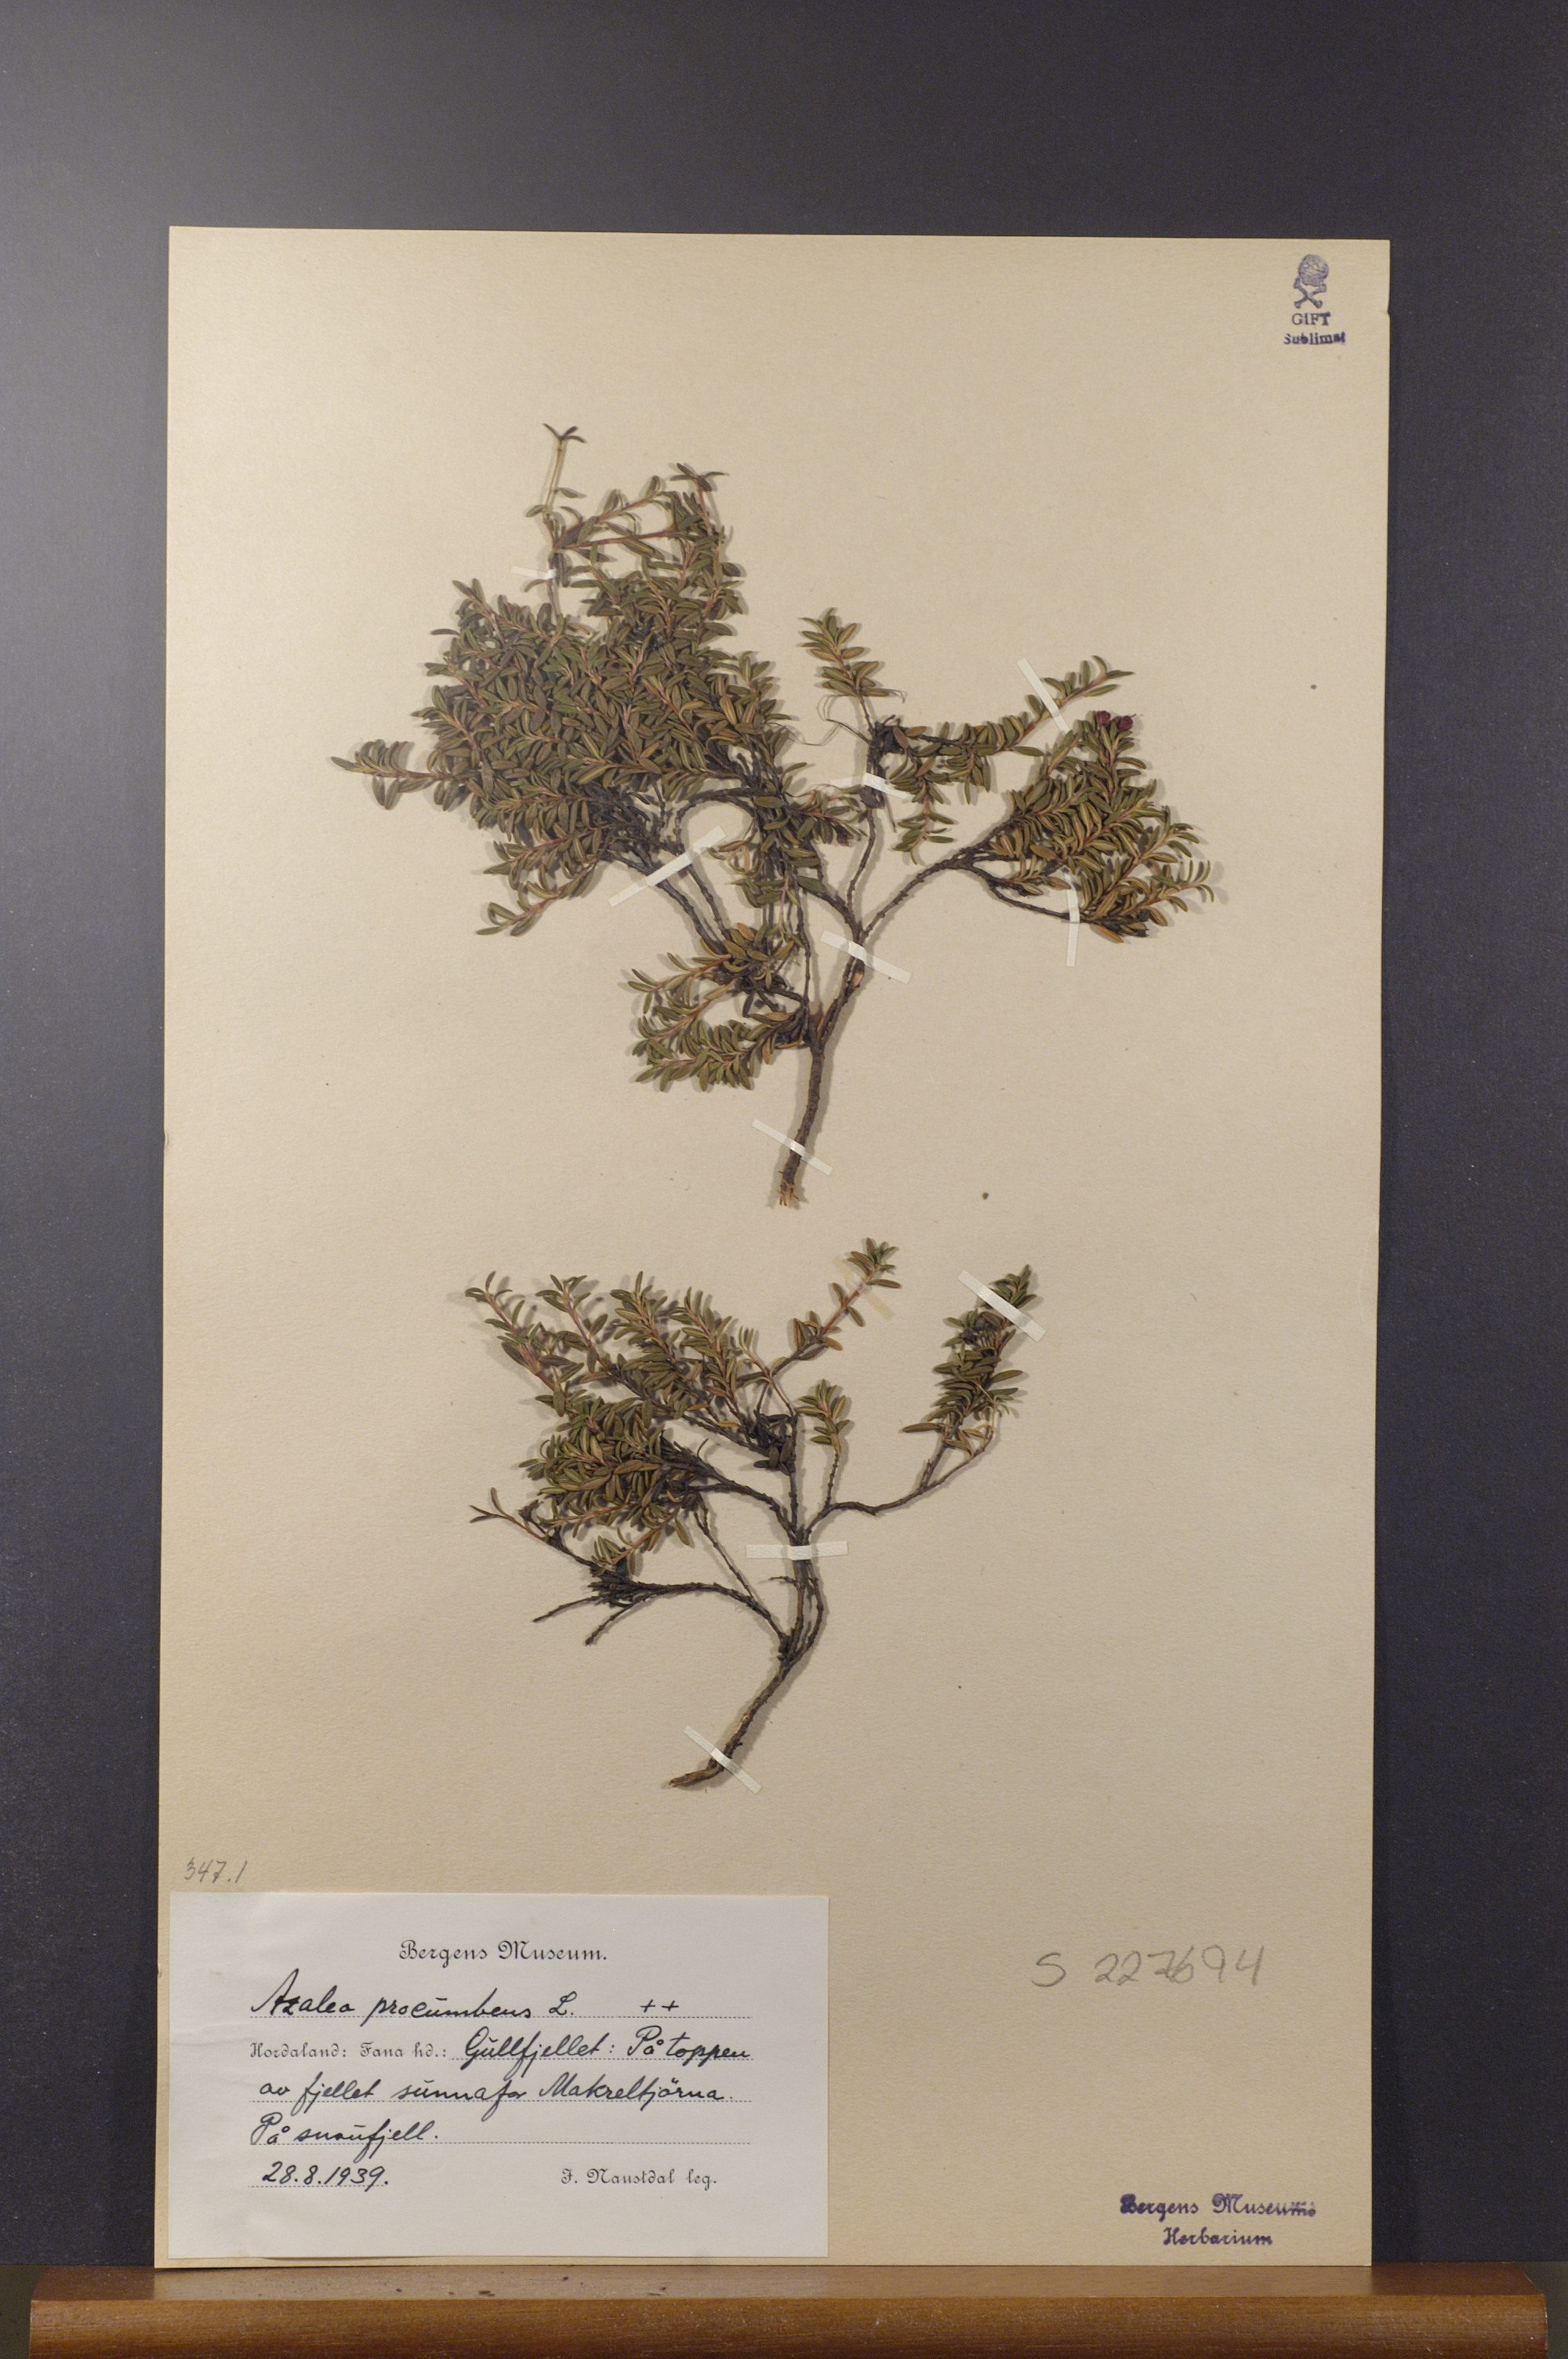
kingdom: Plantae
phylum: Tracheophyta
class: Magnoliopsida
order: Ericales
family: Ericaceae
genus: Kalmia
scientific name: Kalmia procumbens
